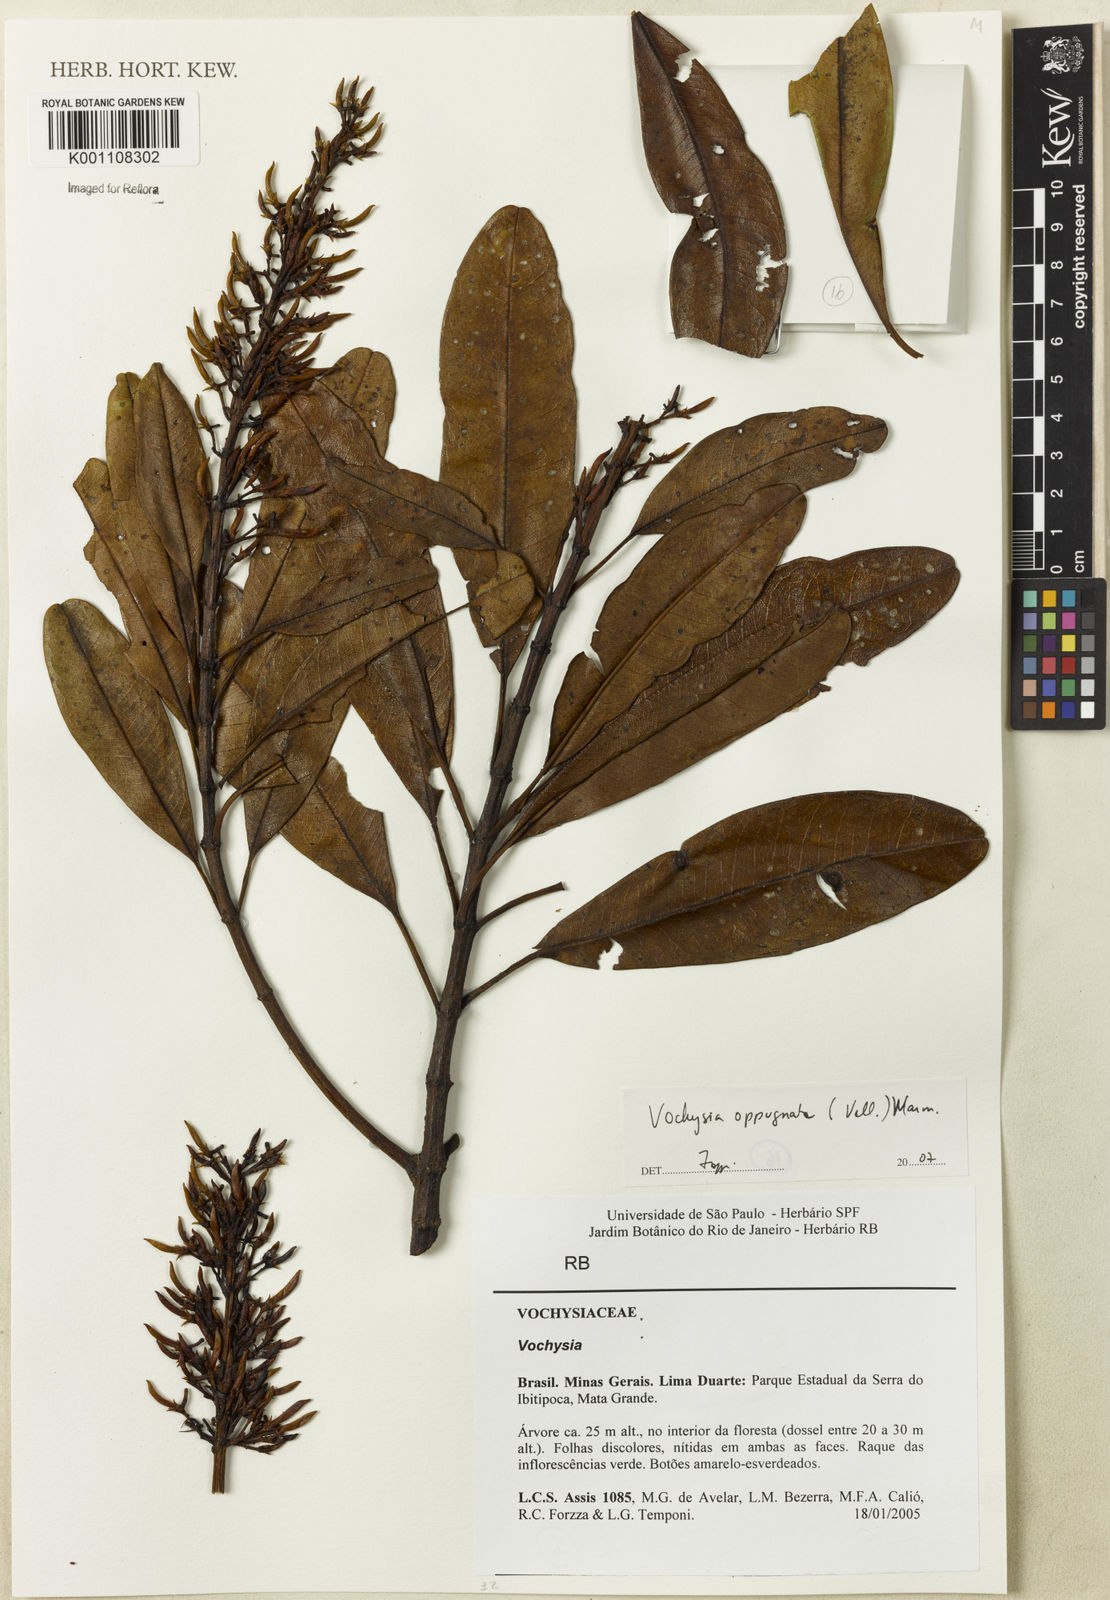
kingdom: Plantae
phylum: Tracheophyta
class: Magnoliopsida
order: Myrtales
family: Vochysiaceae
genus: Vochysia
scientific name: Vochysia oppugnata
